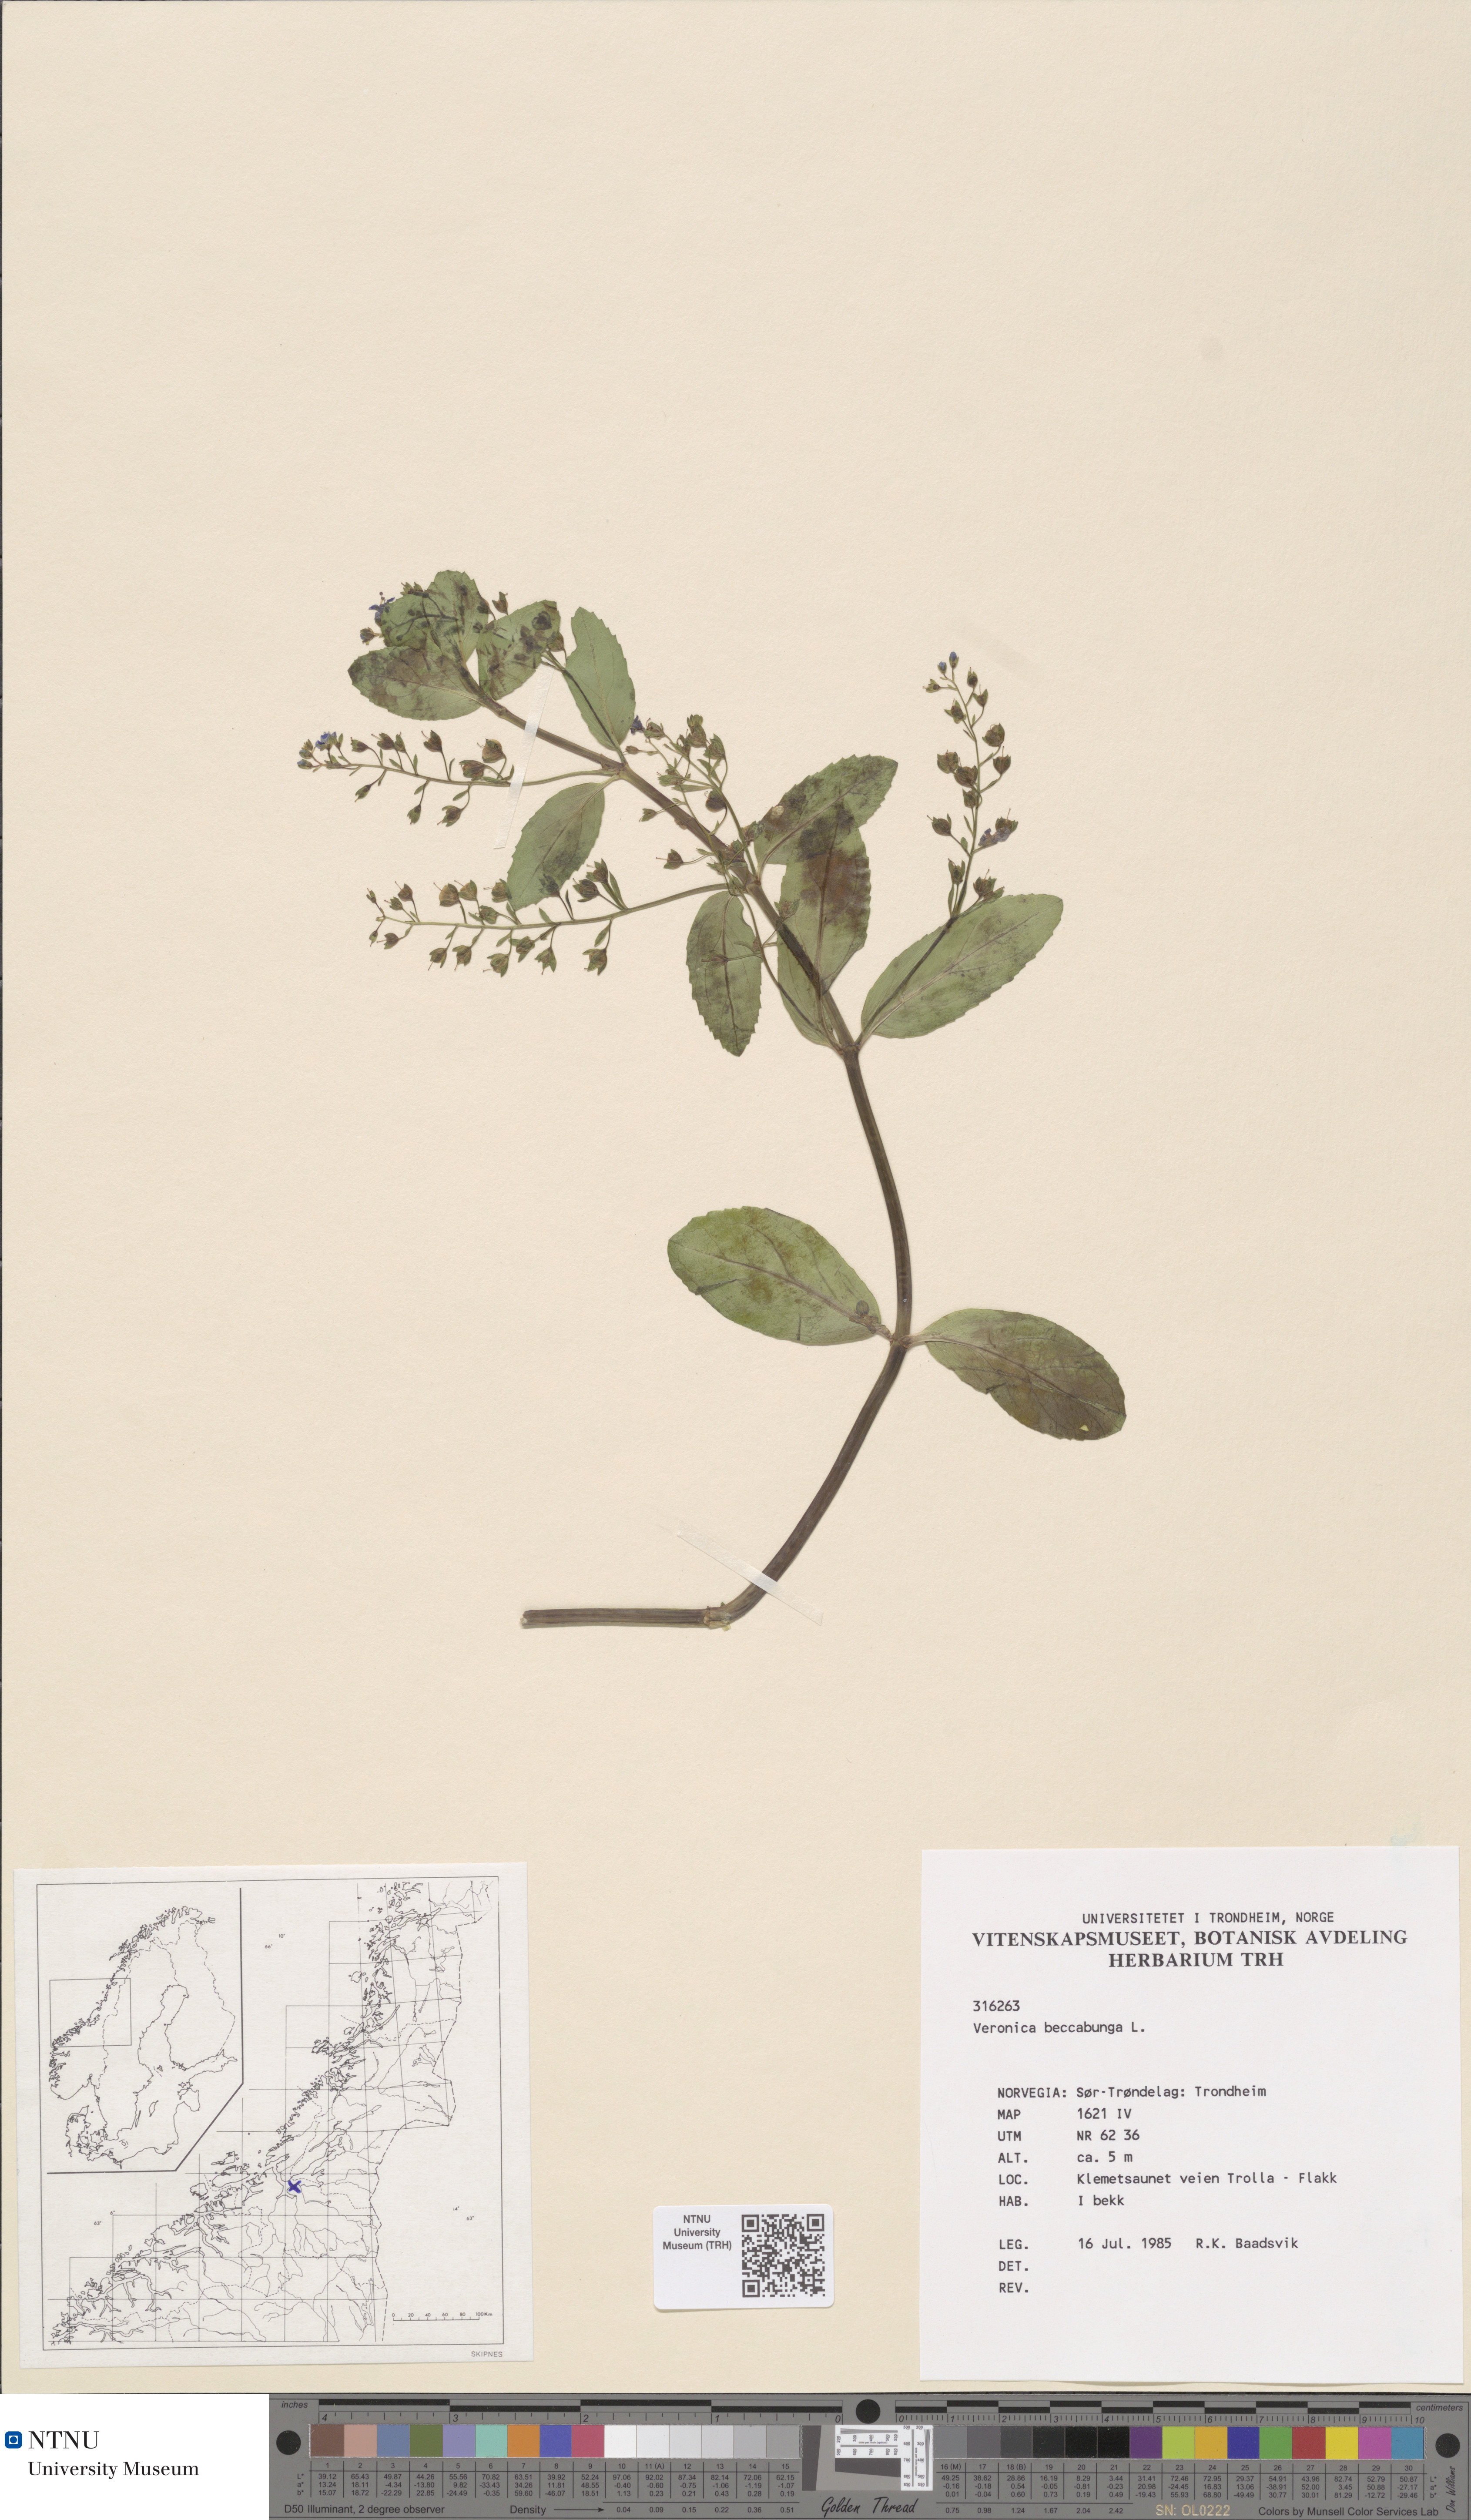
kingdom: Plantae
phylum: Tracheophyta
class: Magnoliopsida
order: Lamiales
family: Plantaginaceae
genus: Veronica
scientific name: Veronica beccabunga
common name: Brooklime
